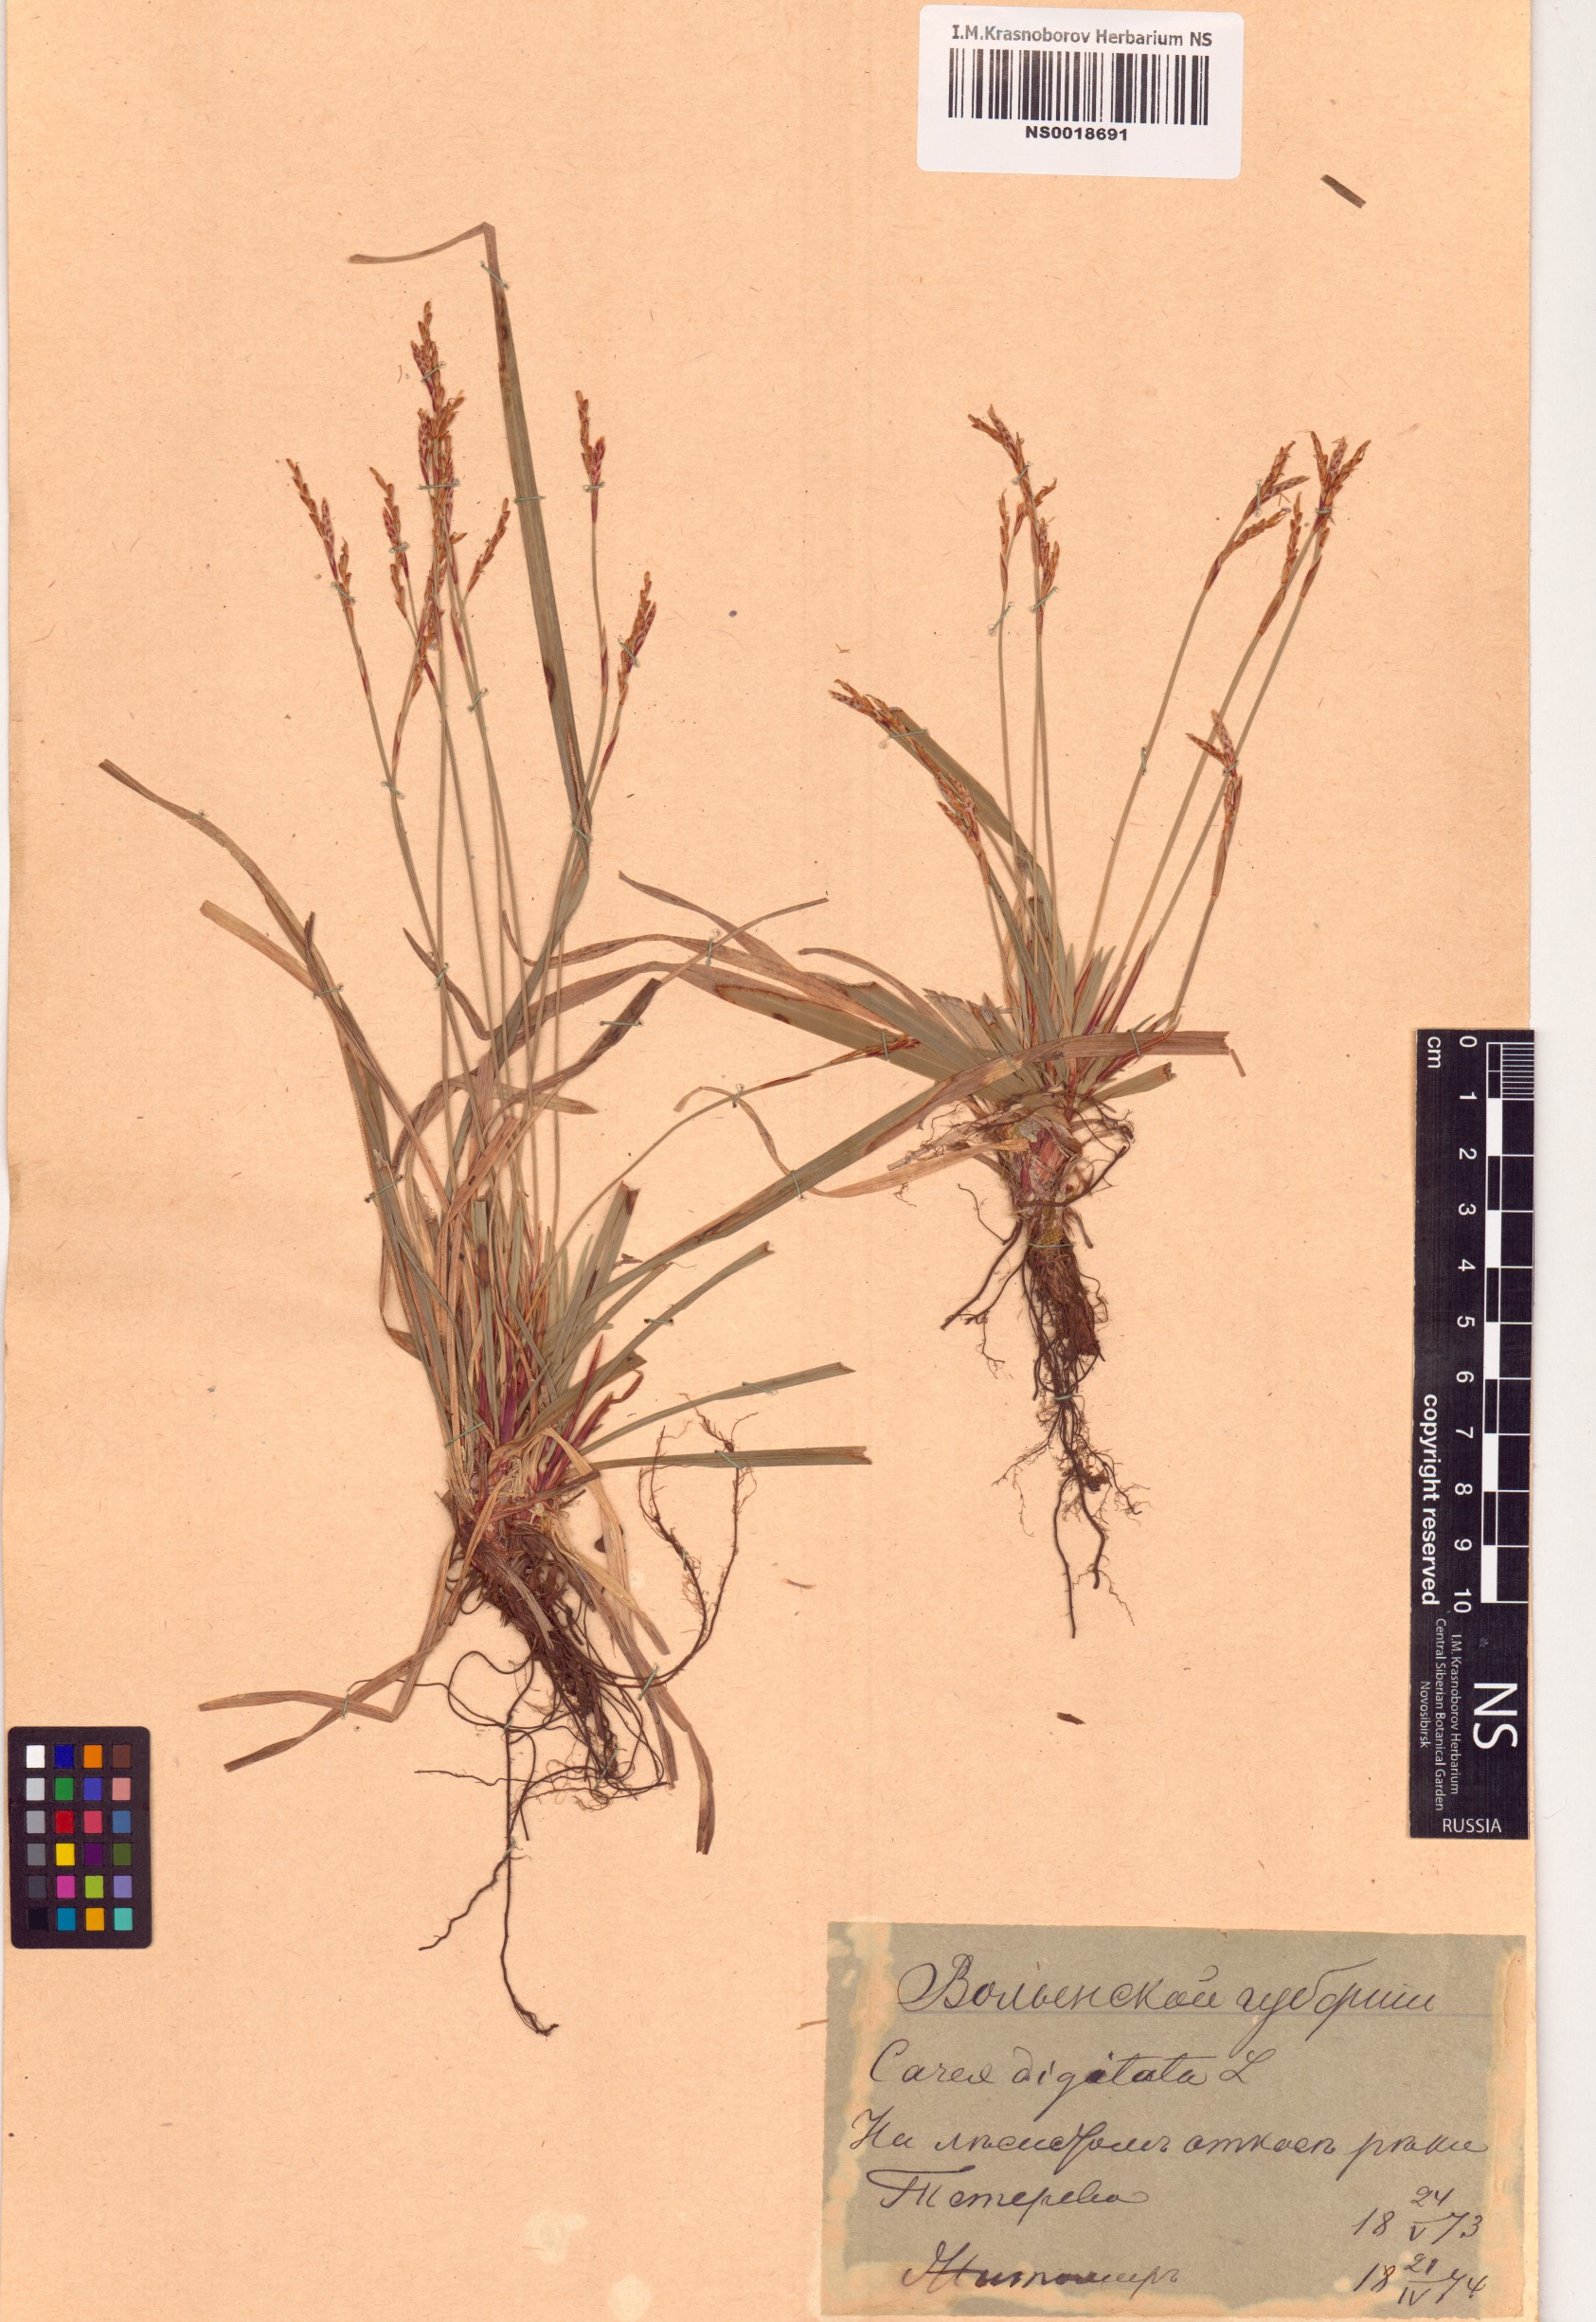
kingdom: Plantae
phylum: Tracheophyta
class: Liliopsida
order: Poales
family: Cyperaceae
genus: Carex
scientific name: Carex digitata
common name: Fingered sedge
